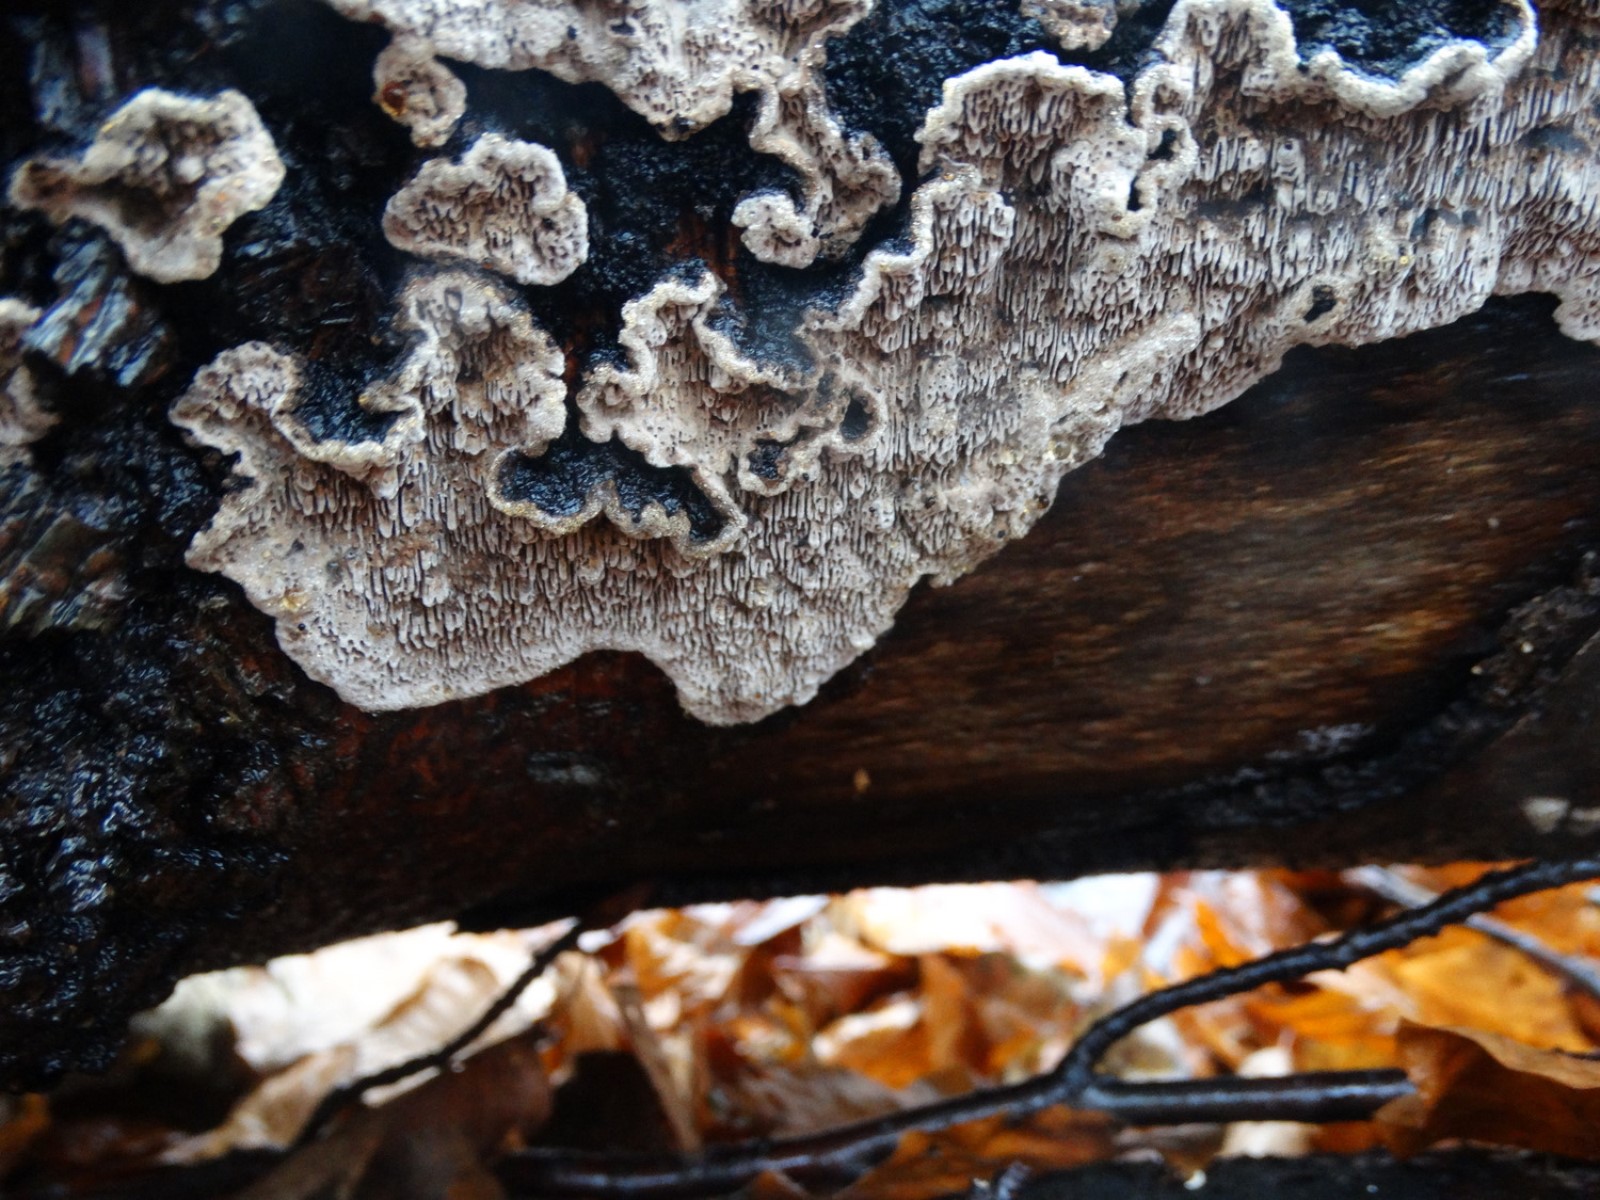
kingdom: Fungi
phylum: Basidiomycota
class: Agaricomycetes
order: Polyporales
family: Polyporaceae
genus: Podofomes
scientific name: Podofomes mollis
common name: blød begporesvamp
